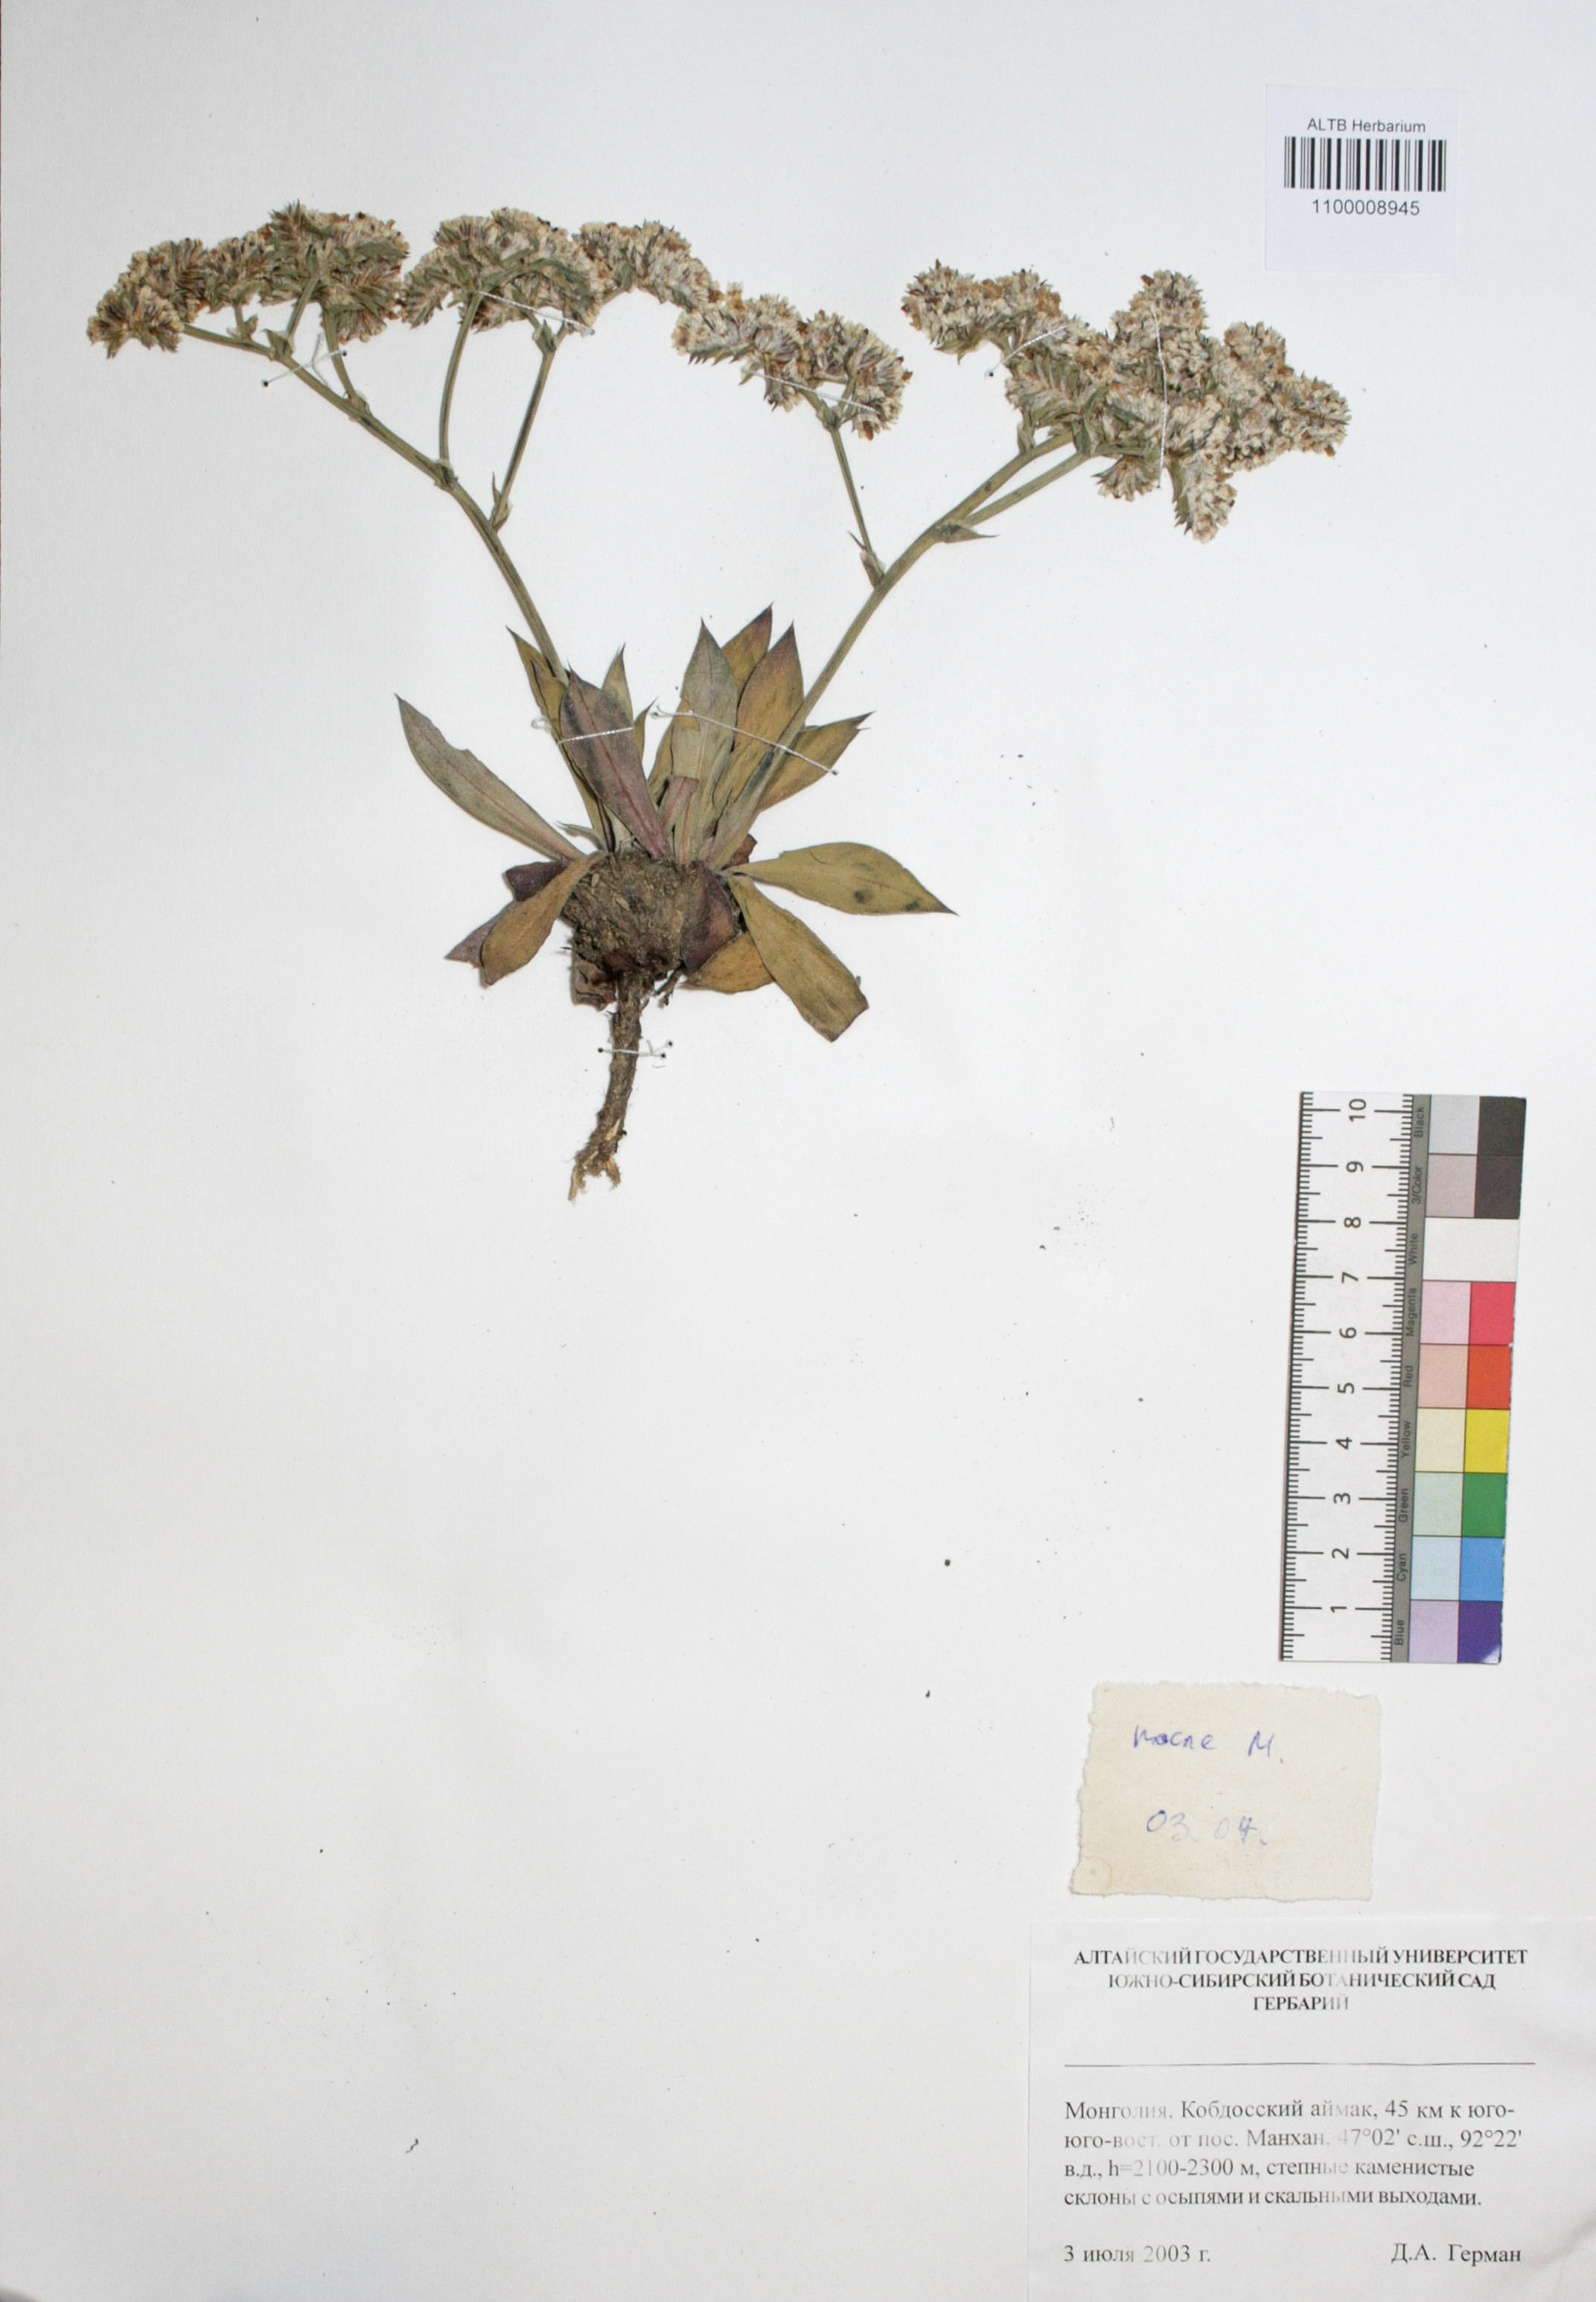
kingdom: Plantae
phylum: Tracheophyta
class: Magnoliopsida
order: Caryophyllales
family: Plumbaginaceae
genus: Goniolimon
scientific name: Goniolimon speciosum
